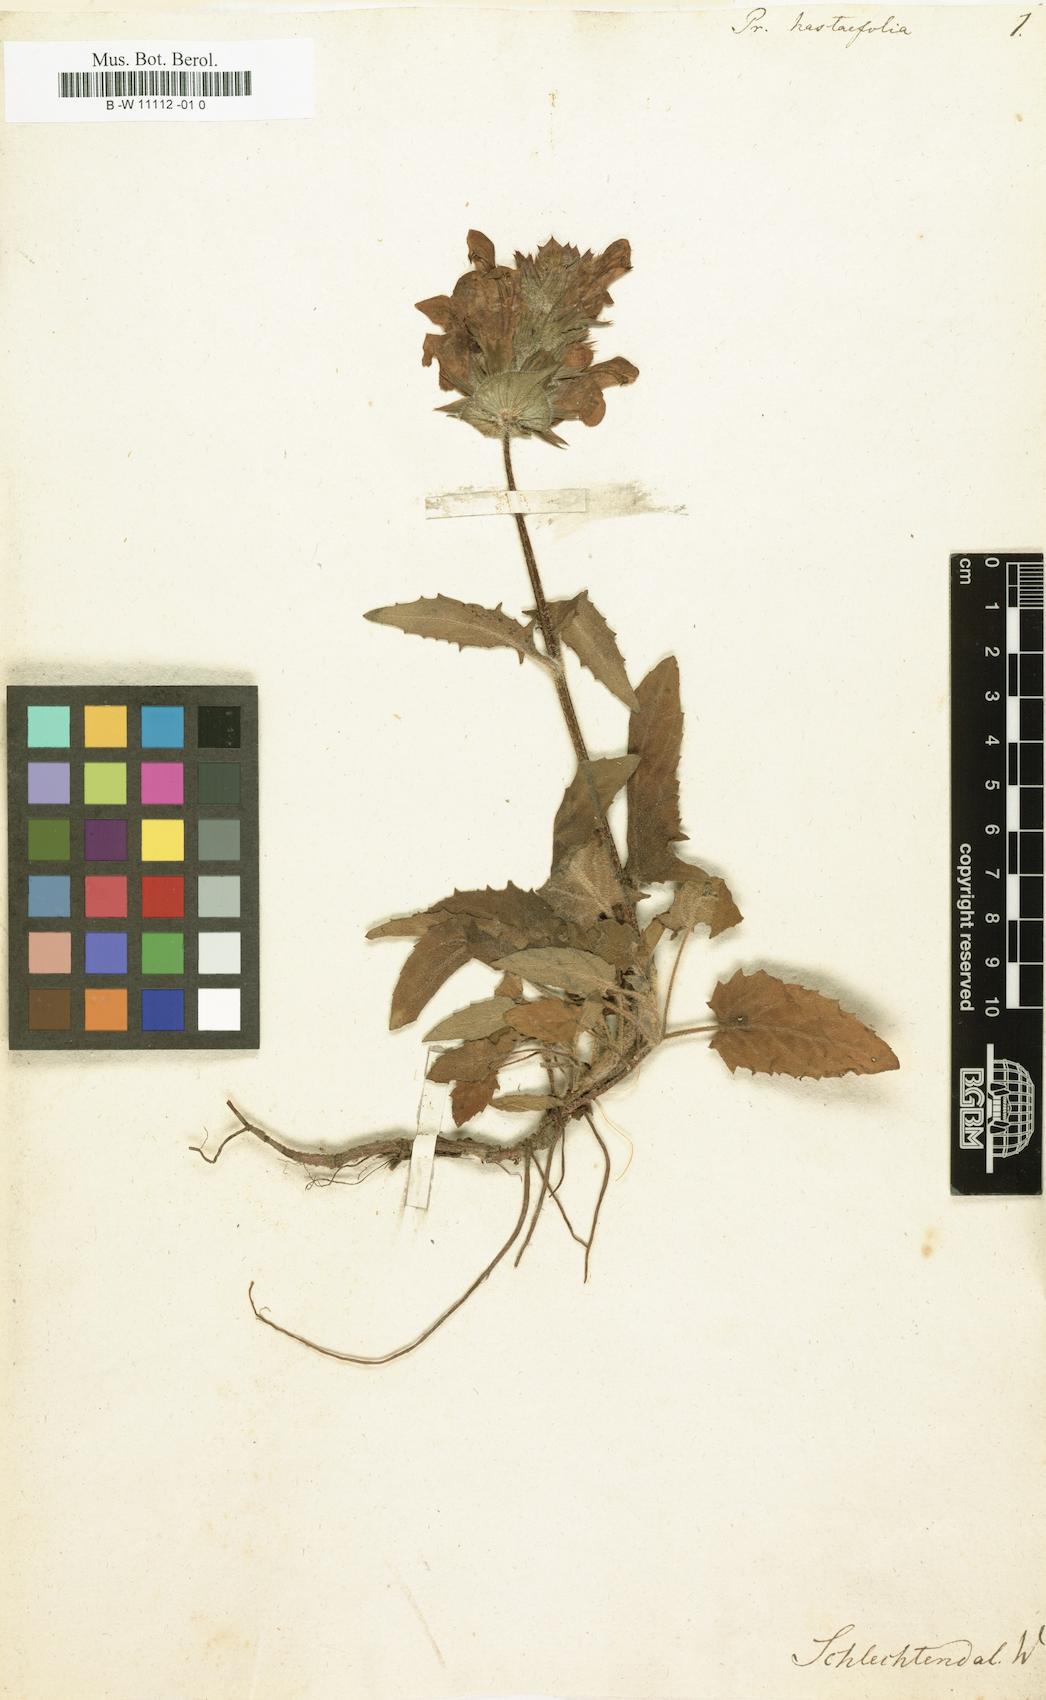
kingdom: Plantae
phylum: Tracheophyta
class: Magnoliopsida
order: Lamiales
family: Lamiaceae
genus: Prunella
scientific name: Prunella grandiflora
